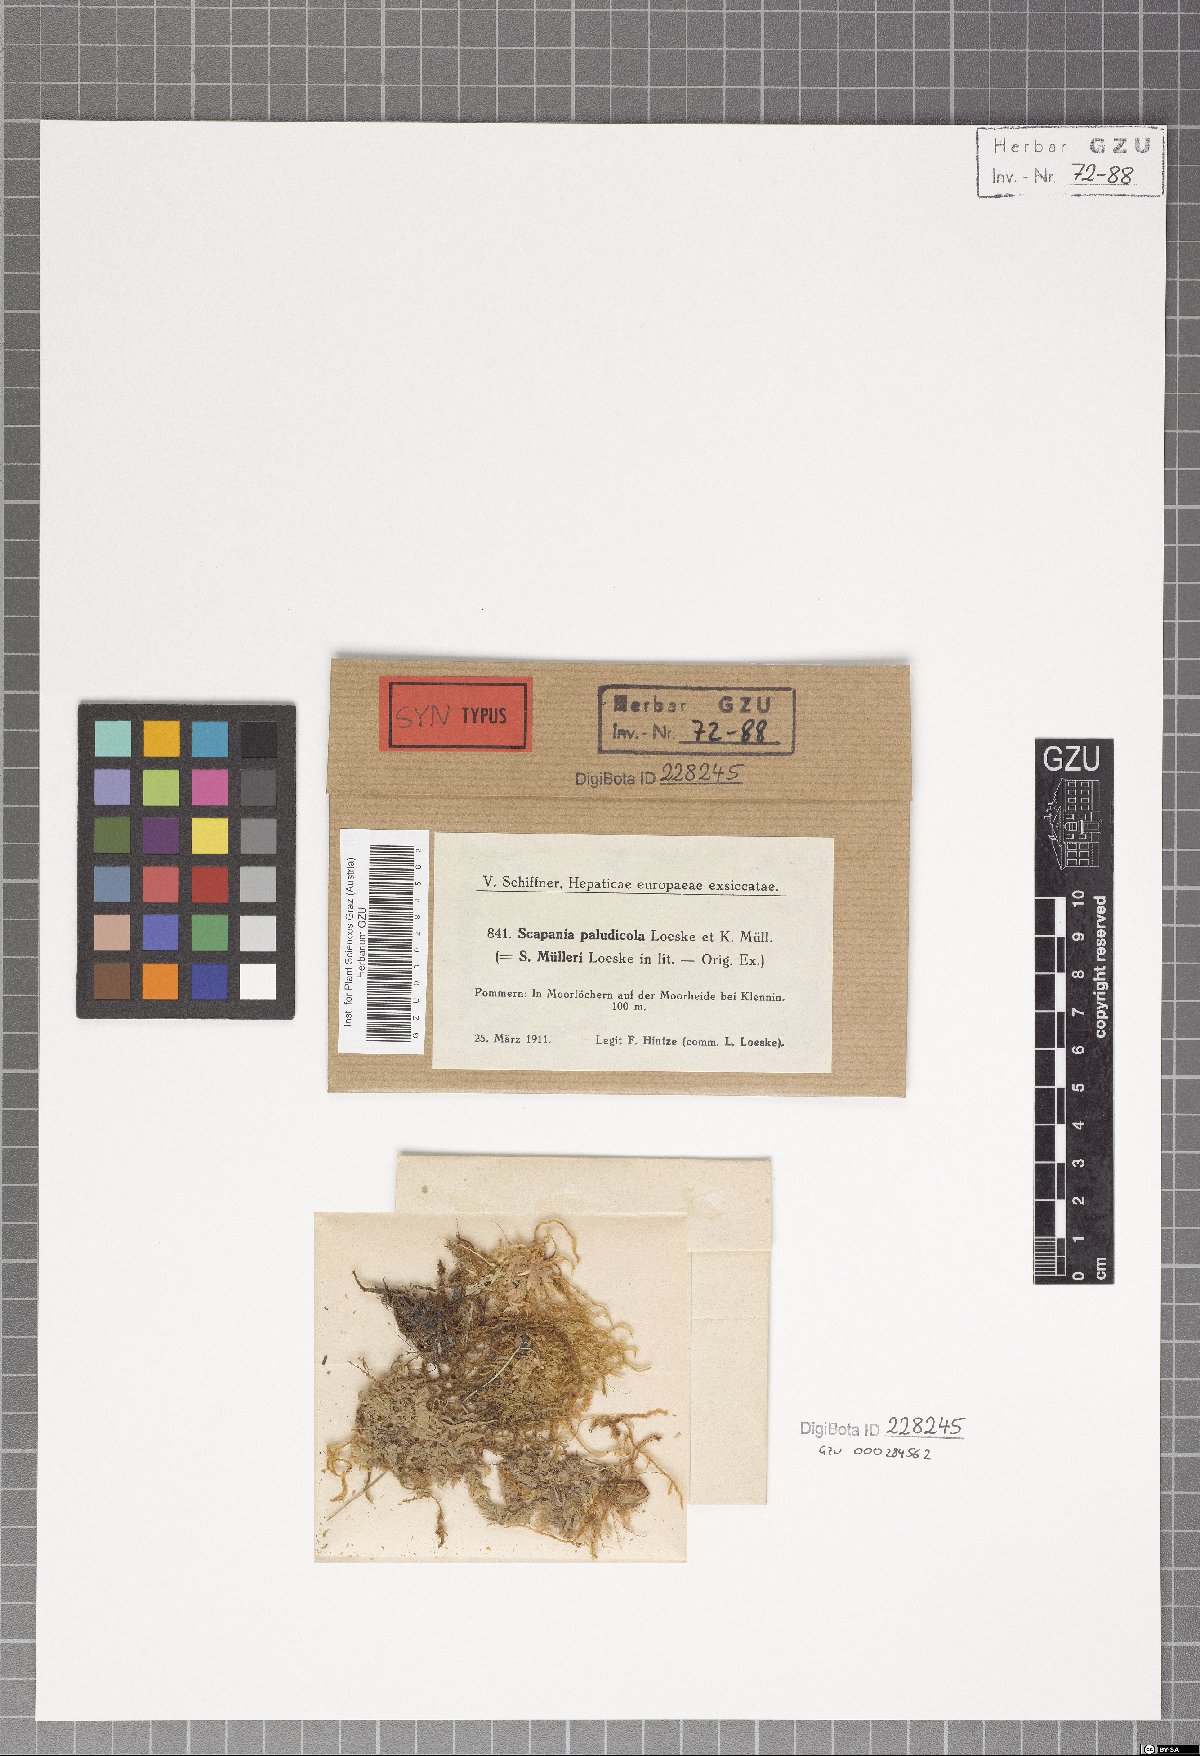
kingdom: Plantae
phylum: Marchantiophyta
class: Jungermanniopsida
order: Jungermanniales
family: Scapaniaceae
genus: Scapania
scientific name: Scapania paludicola
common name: Bog earwort
